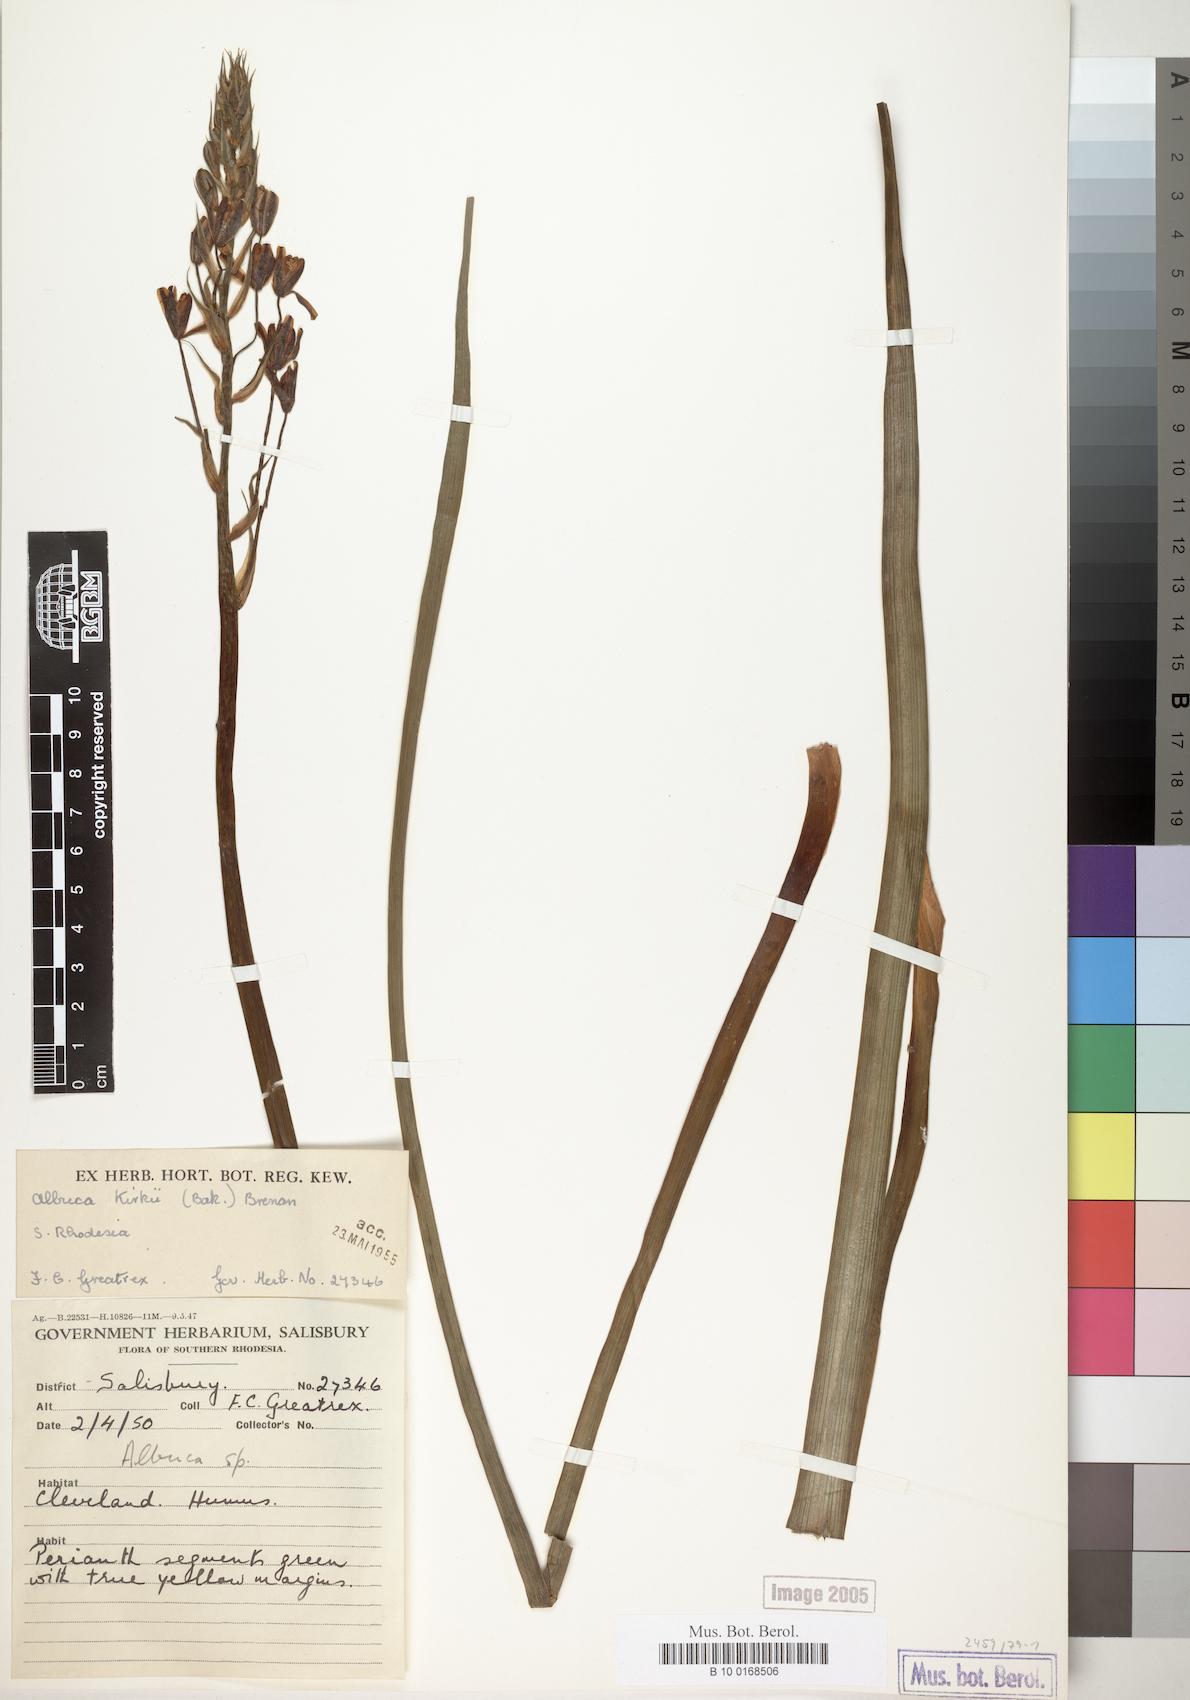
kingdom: Plantae
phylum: Tracheophyta
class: Liliopsida
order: Asparagales
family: Asparagaceae
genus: Albuca
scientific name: Albuca kirkii
